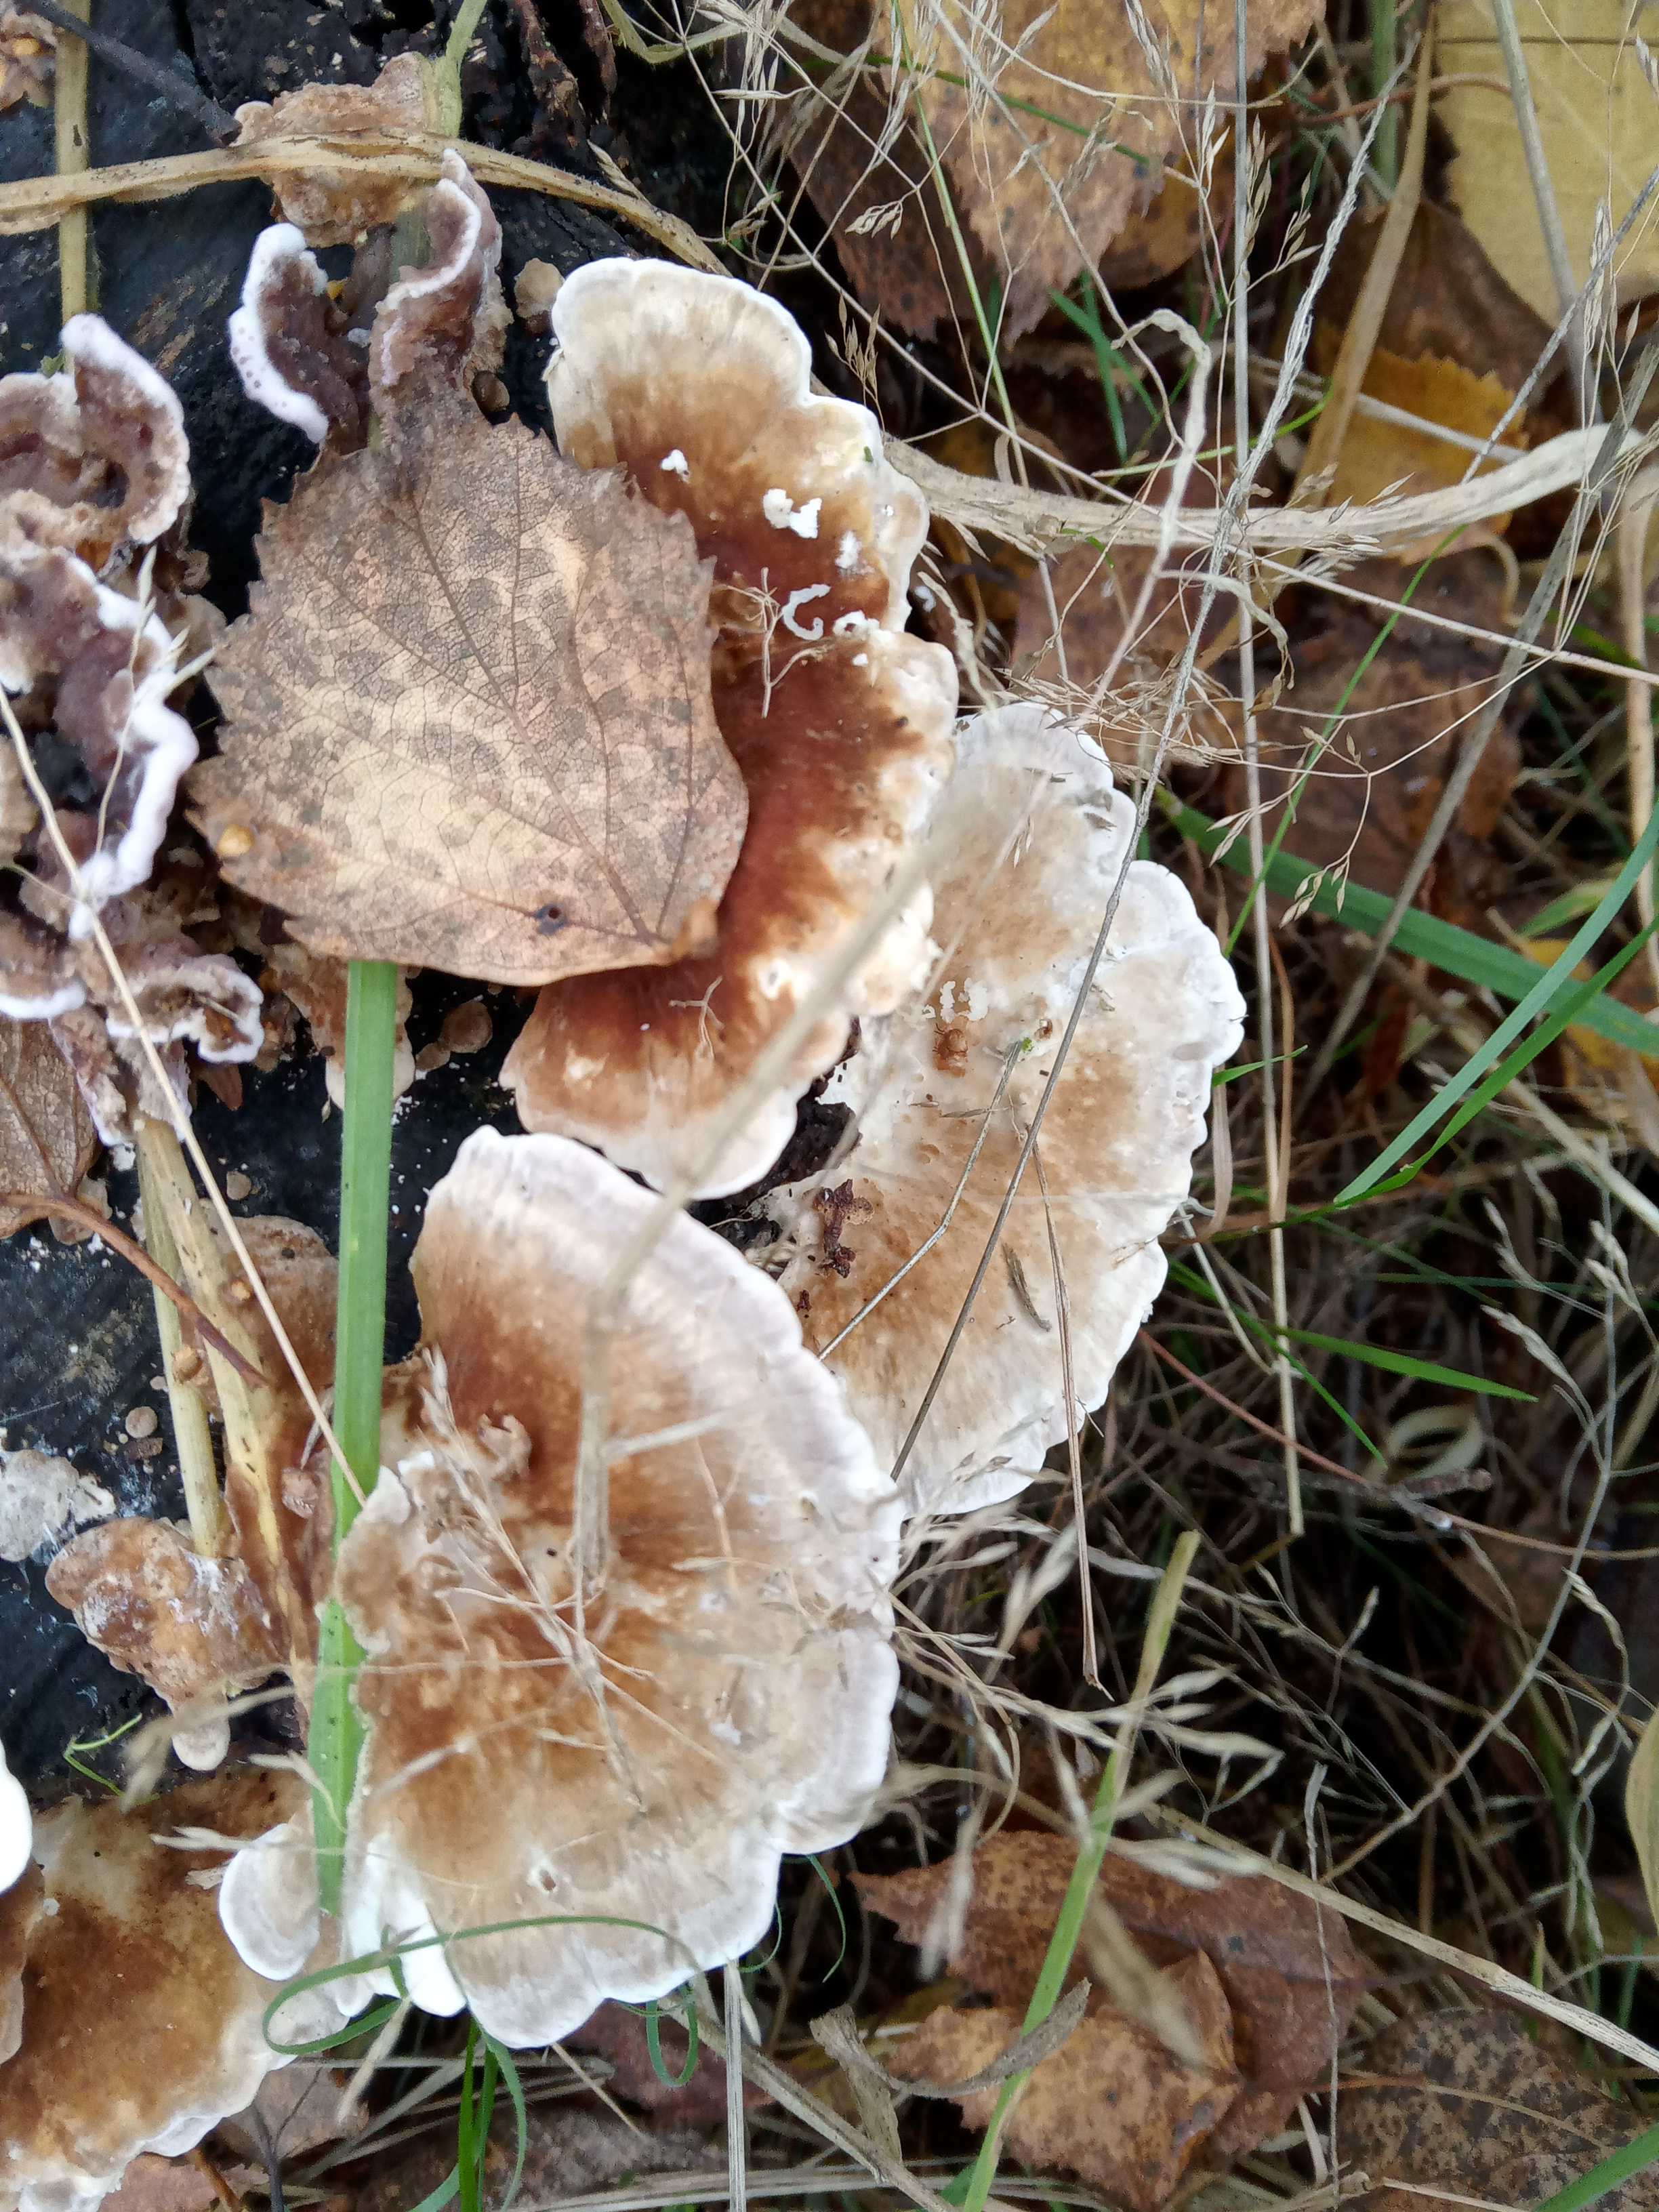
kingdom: Fungi
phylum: Basidiomycota
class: Agaricomycetes
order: Polyporales
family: Polyporaceae
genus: Trametes
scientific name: Trametes ochracea
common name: bæltet læderporesvamp
